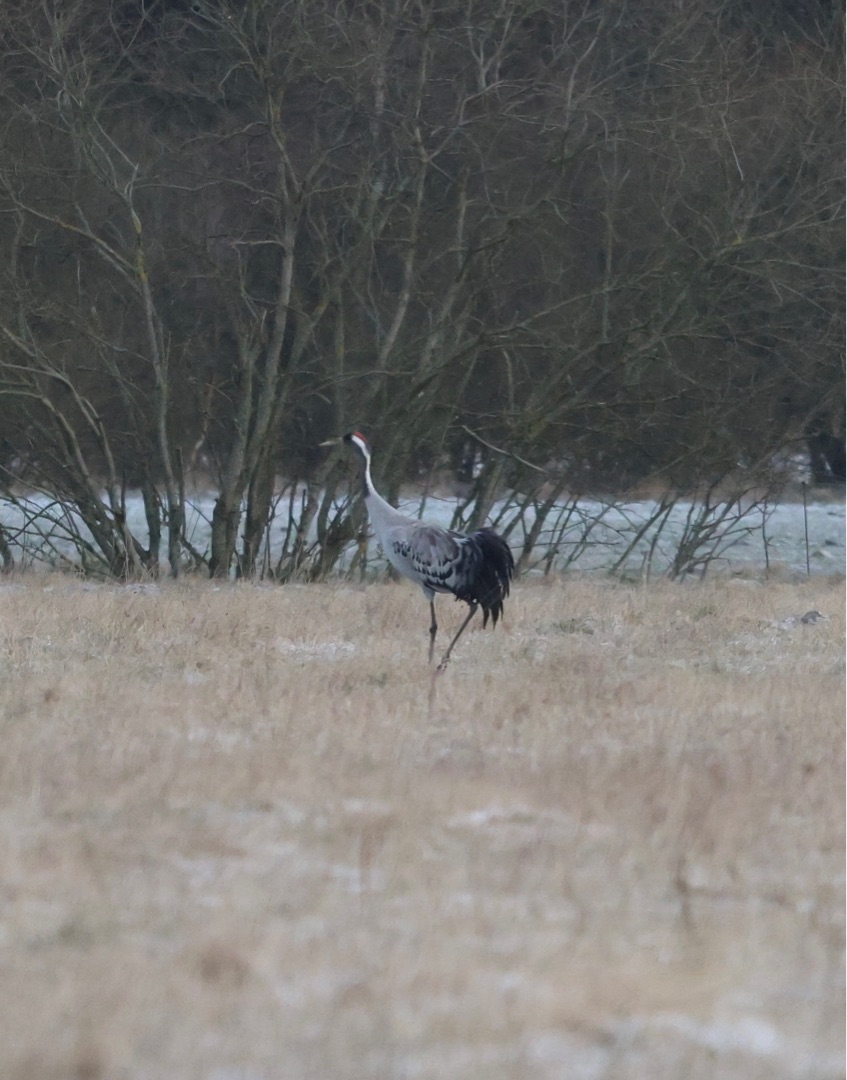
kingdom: Animalia
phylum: Chordata
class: Aves
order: Gruiformes
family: Gruidae
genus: Grus
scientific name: Grus grus
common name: Trane
